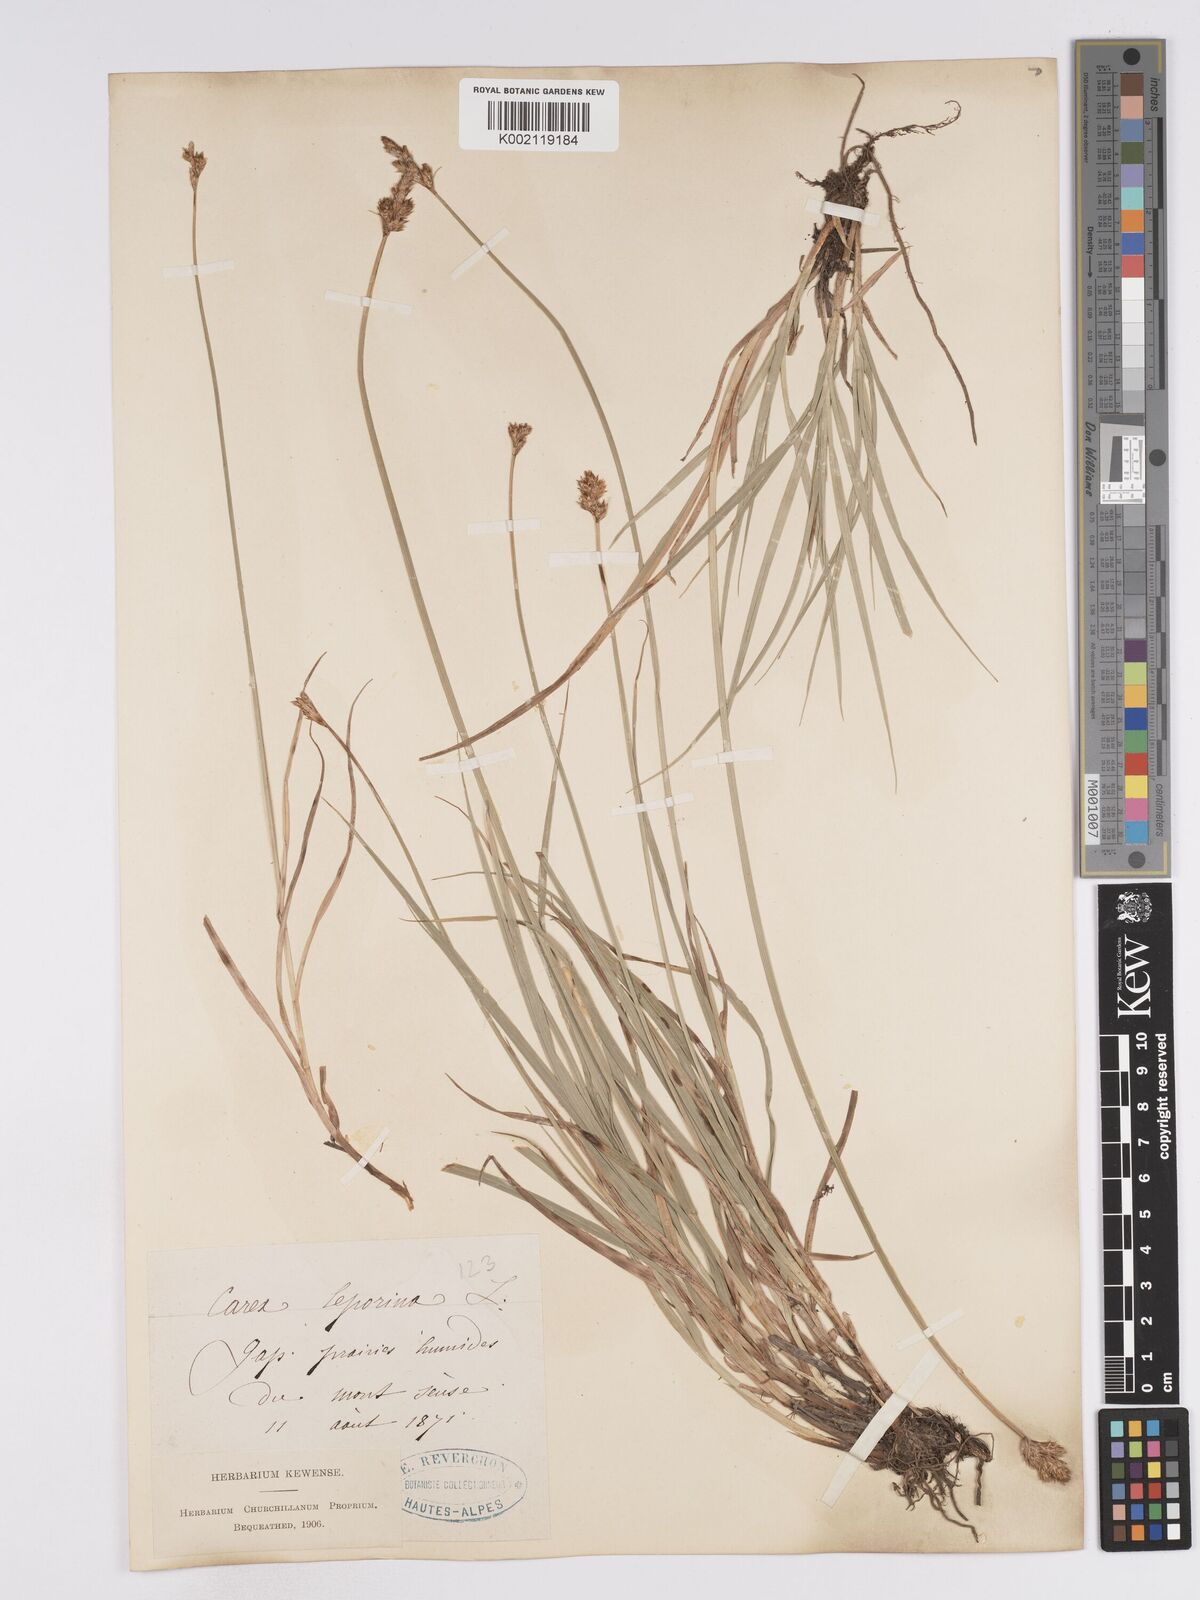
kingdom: Plantae
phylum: Tracheophyta
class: Liliopsida
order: Poales
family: Cyperaceae
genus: Carex
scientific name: Carex leporina
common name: Oval sedge
